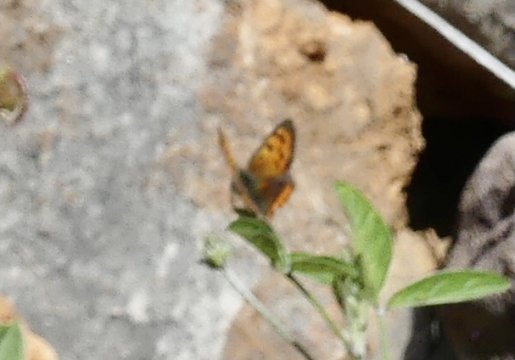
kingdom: Animalia
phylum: Arthropoda
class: Insecta
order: Lepidoptera
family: Lycaenidae
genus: Lycaena
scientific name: Lycaena phlaeas
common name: American Copper
